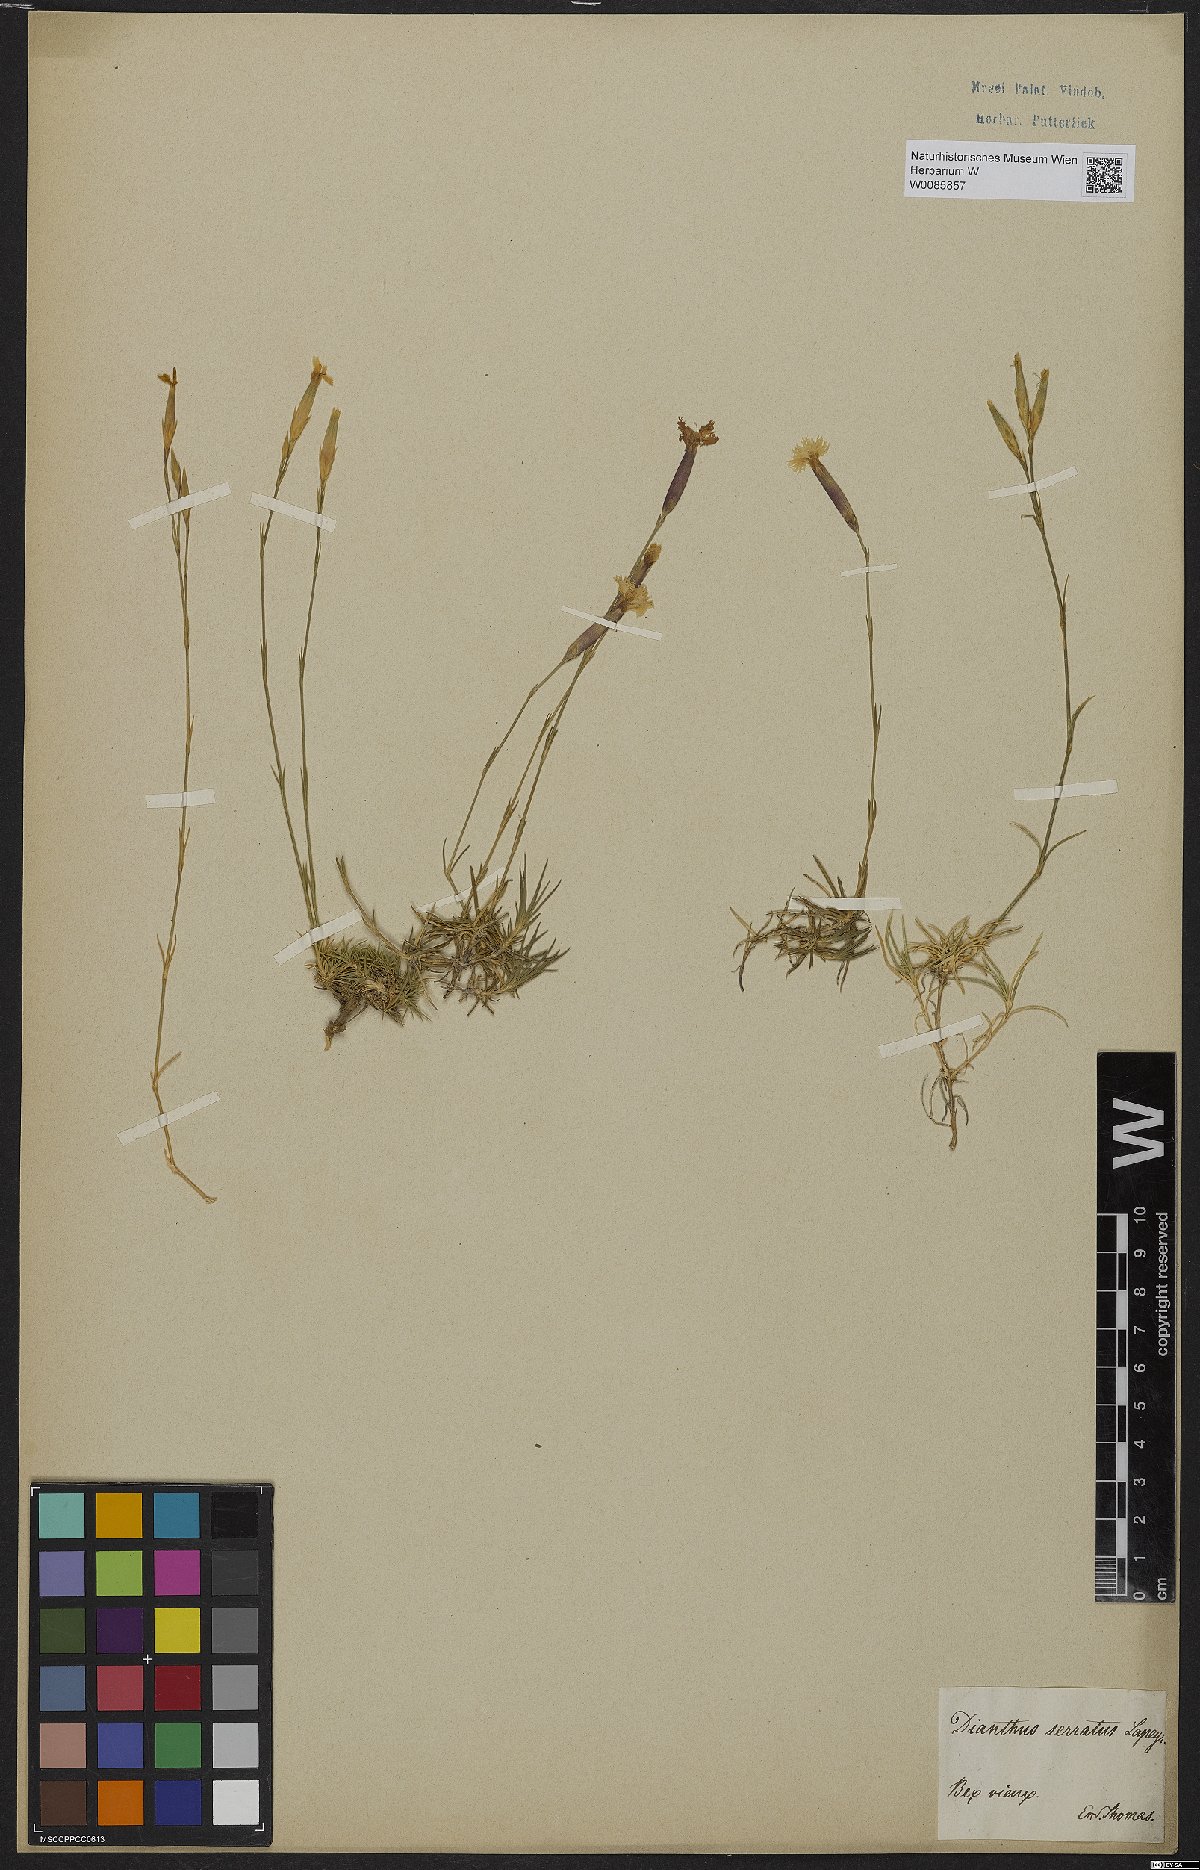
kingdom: Plantae
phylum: Tracheophyta
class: Magnoliopsida
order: Caryophyllales
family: Caryophyllaceae
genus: Dianthus
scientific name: Dianthus pungens
